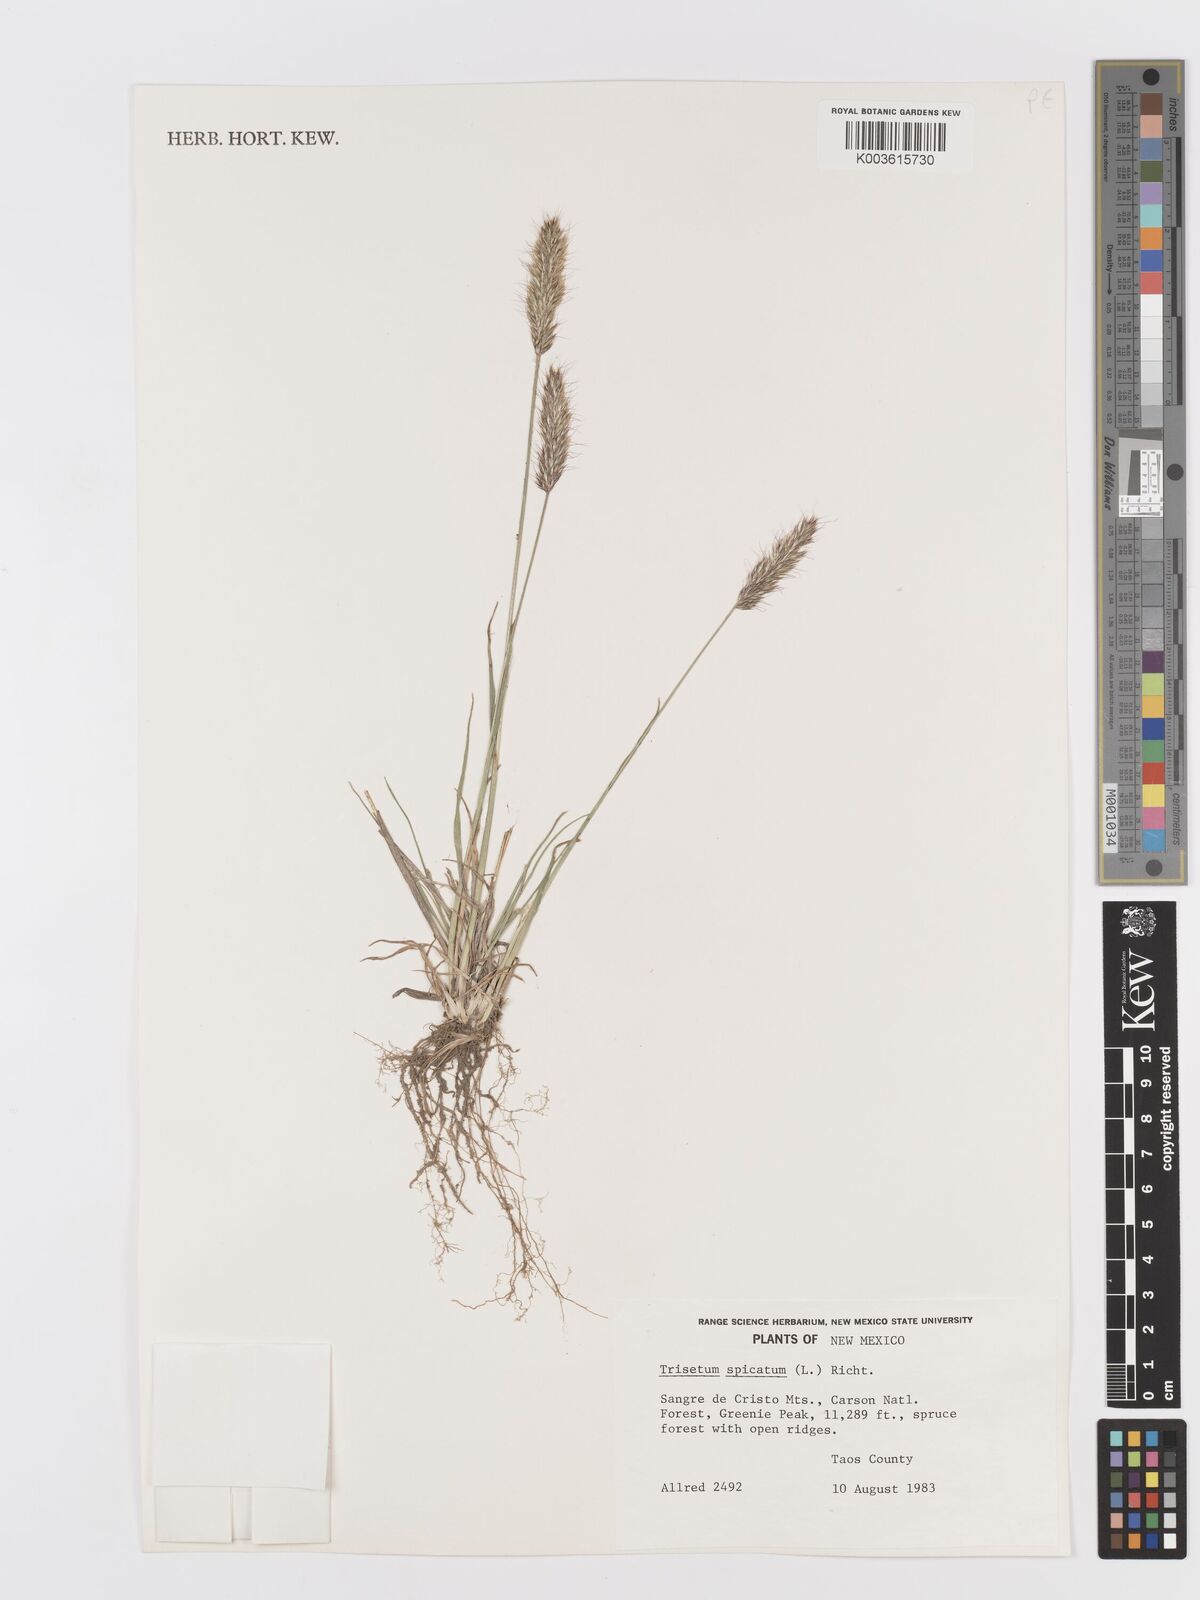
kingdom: Plantae
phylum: Tracheophyta
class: Liliopsida
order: Poales
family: Poaceae
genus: Koeleria
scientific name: Koeleria spicata
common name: Mountain trisetum
